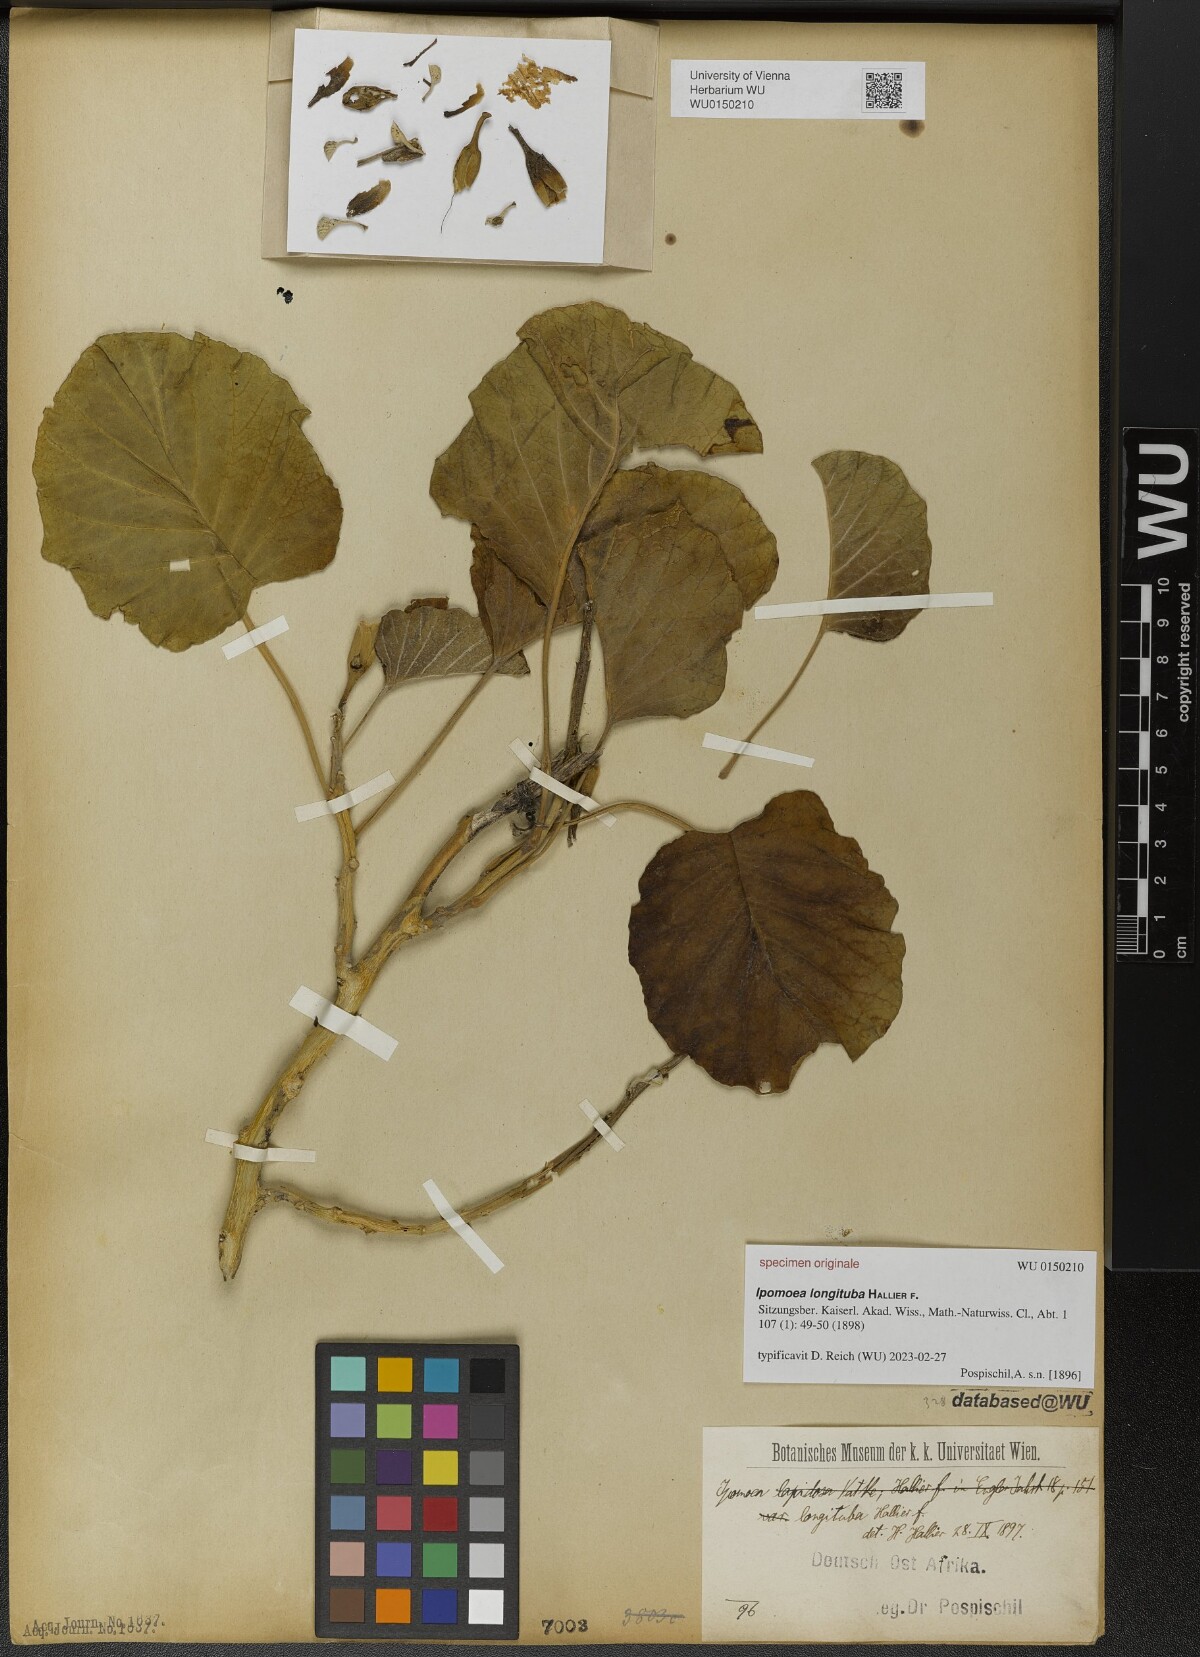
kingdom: Plantae
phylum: Tracheophyta
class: Magnoliopsida
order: Solanales
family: Convolvulaceae
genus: Ipomoea
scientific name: Ipomoea longituba
